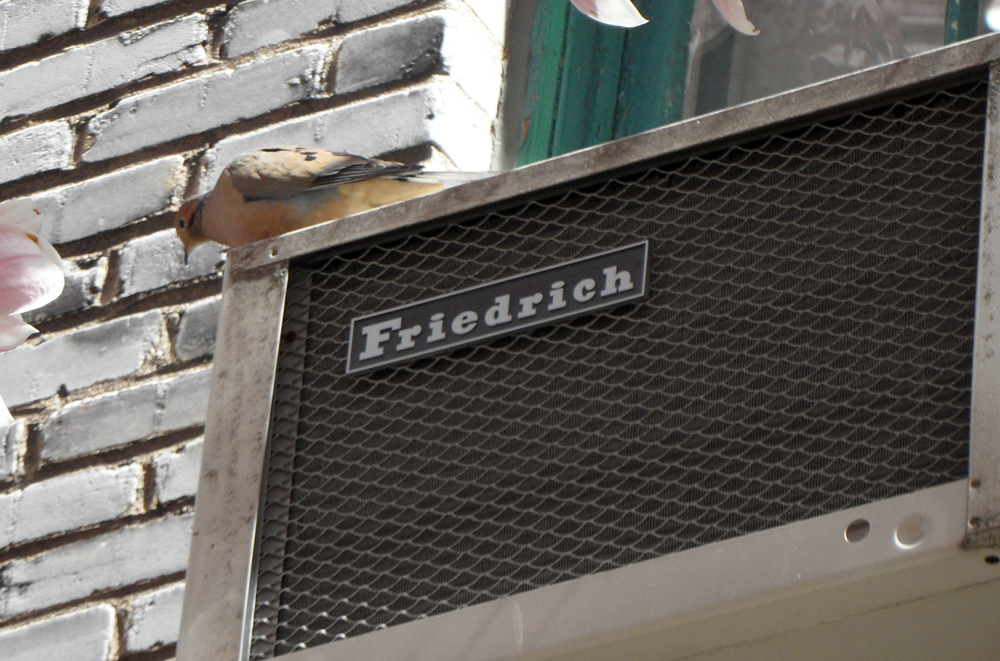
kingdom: Animalia
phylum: Chordata
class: Aves
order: Columbiformes
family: Columbidae
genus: Zenaida
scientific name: Zenaida macroura
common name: Mourning dove
